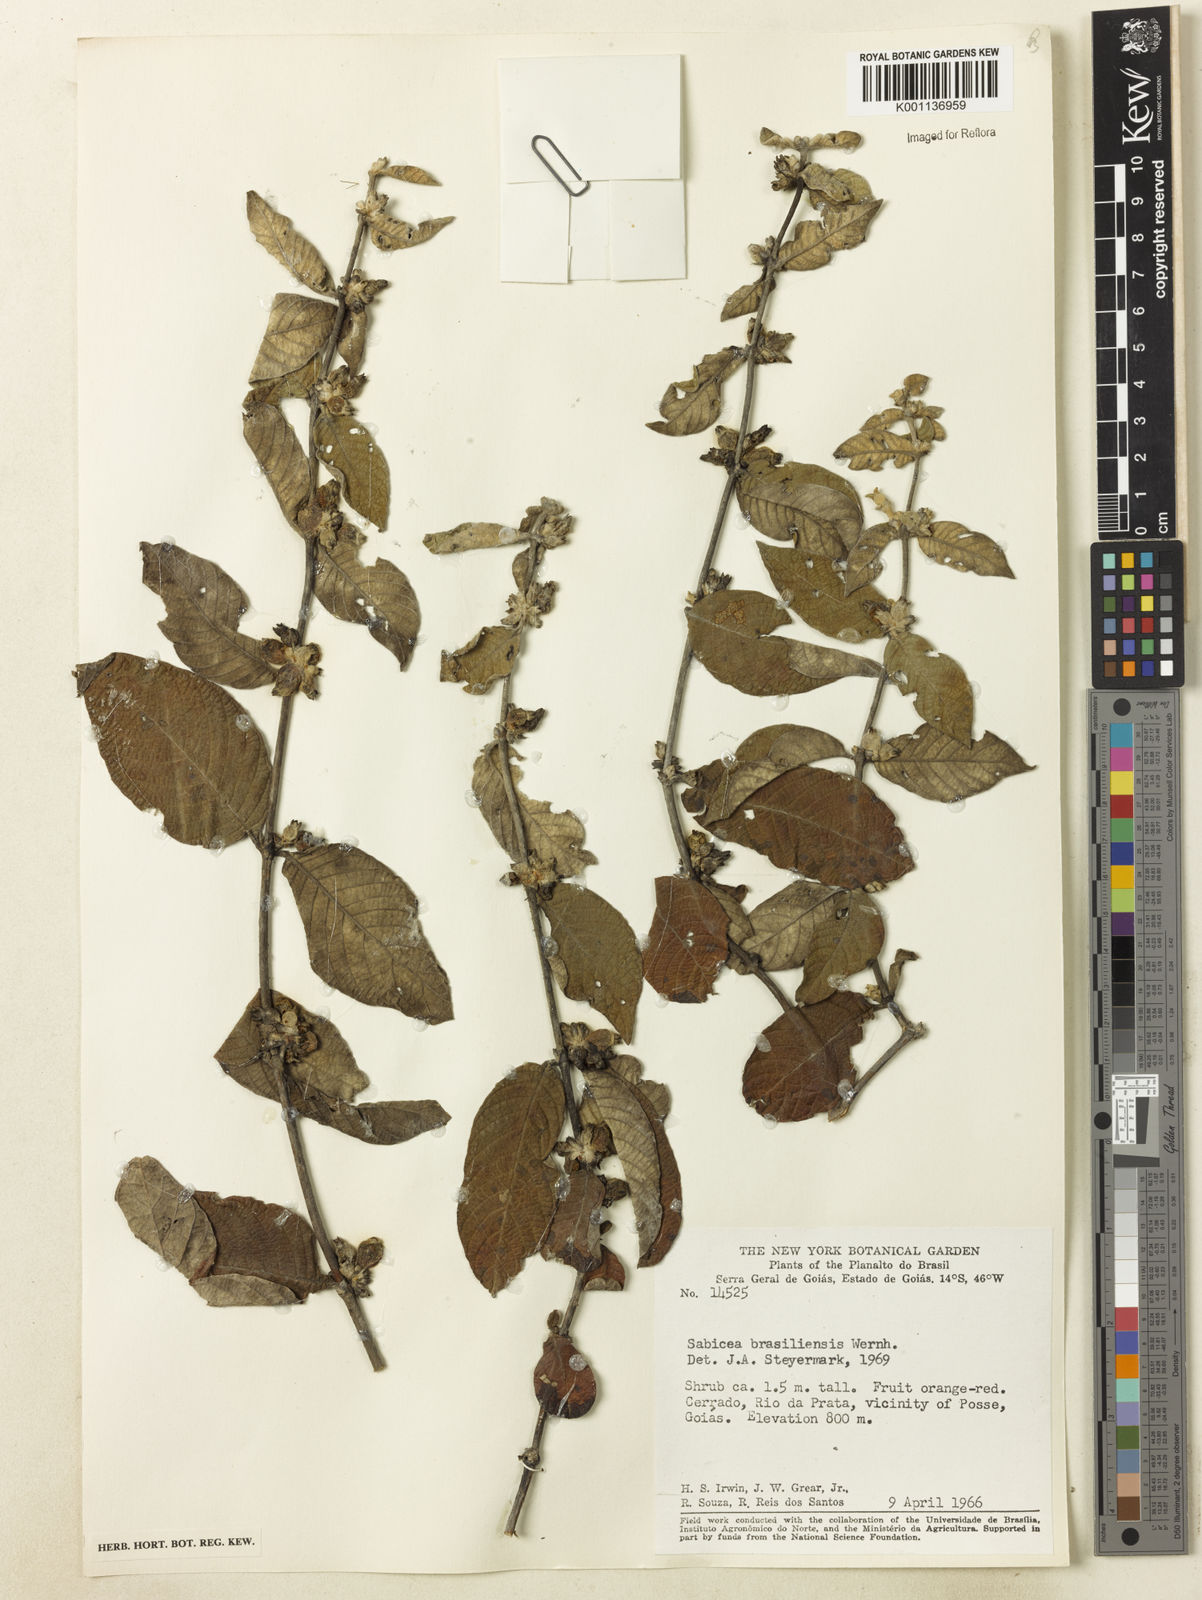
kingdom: Plantae
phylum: Tracheophyta
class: Magnoliopsida
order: Gentianales
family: Rubiaceae
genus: Sabicea
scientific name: Sabicea brasiliensis
